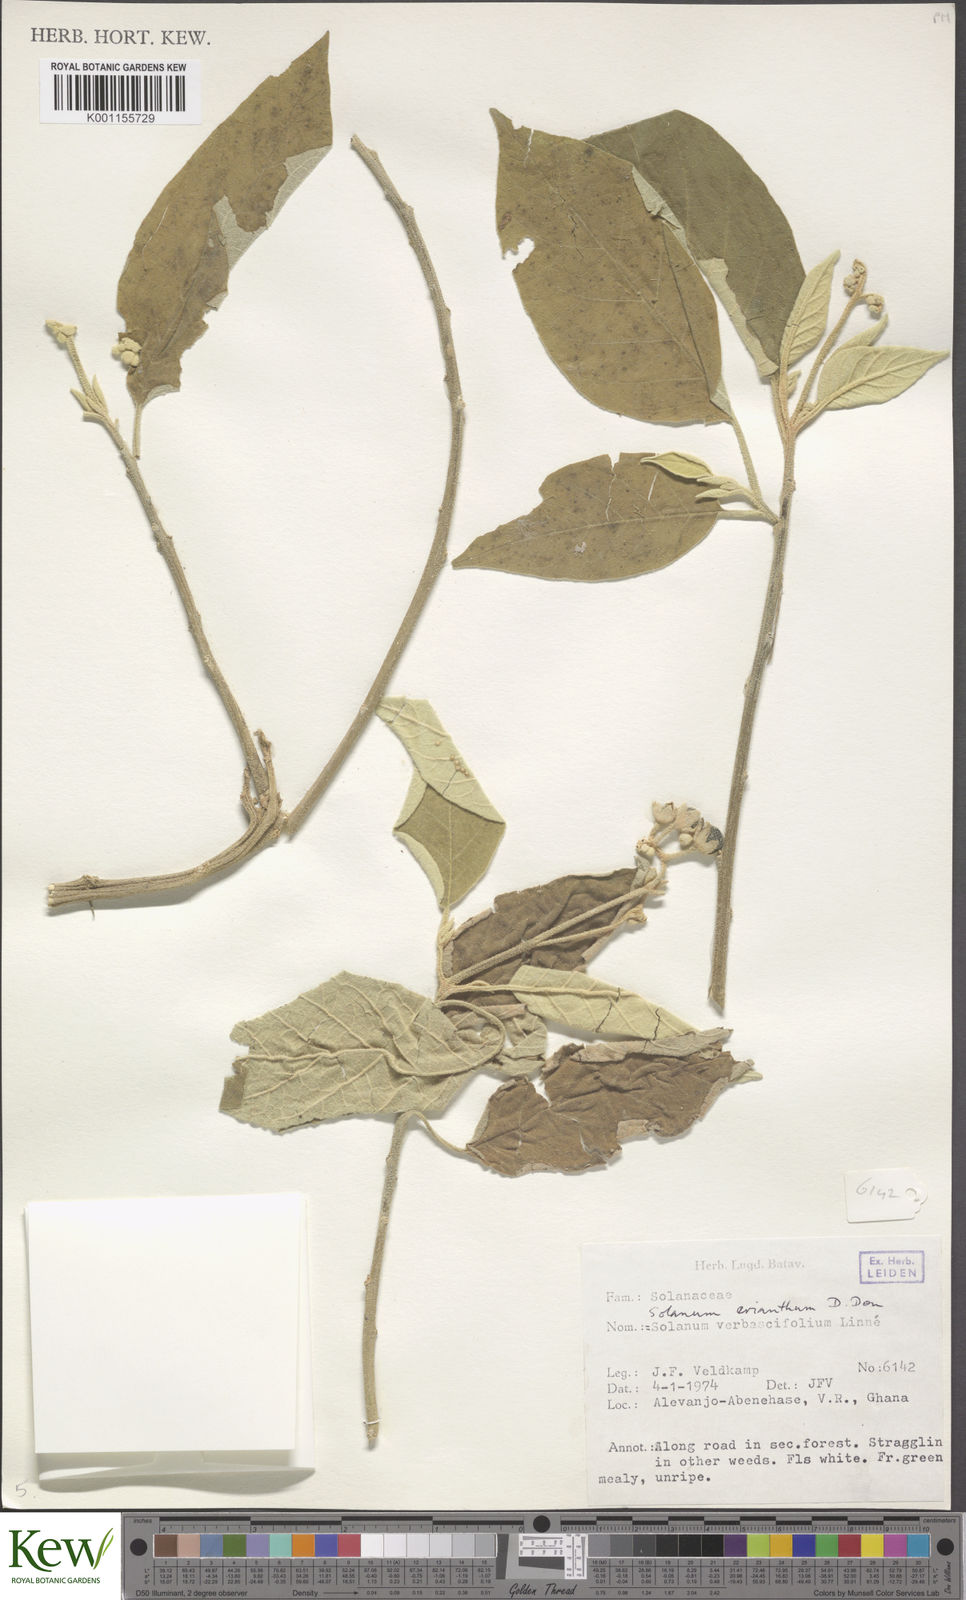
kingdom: Plantae
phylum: Tracheophyta
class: Magnoliopsida
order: Solanales
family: Solanaceae
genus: Solanum
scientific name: Solanum erianthum
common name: Tobacco-tree
